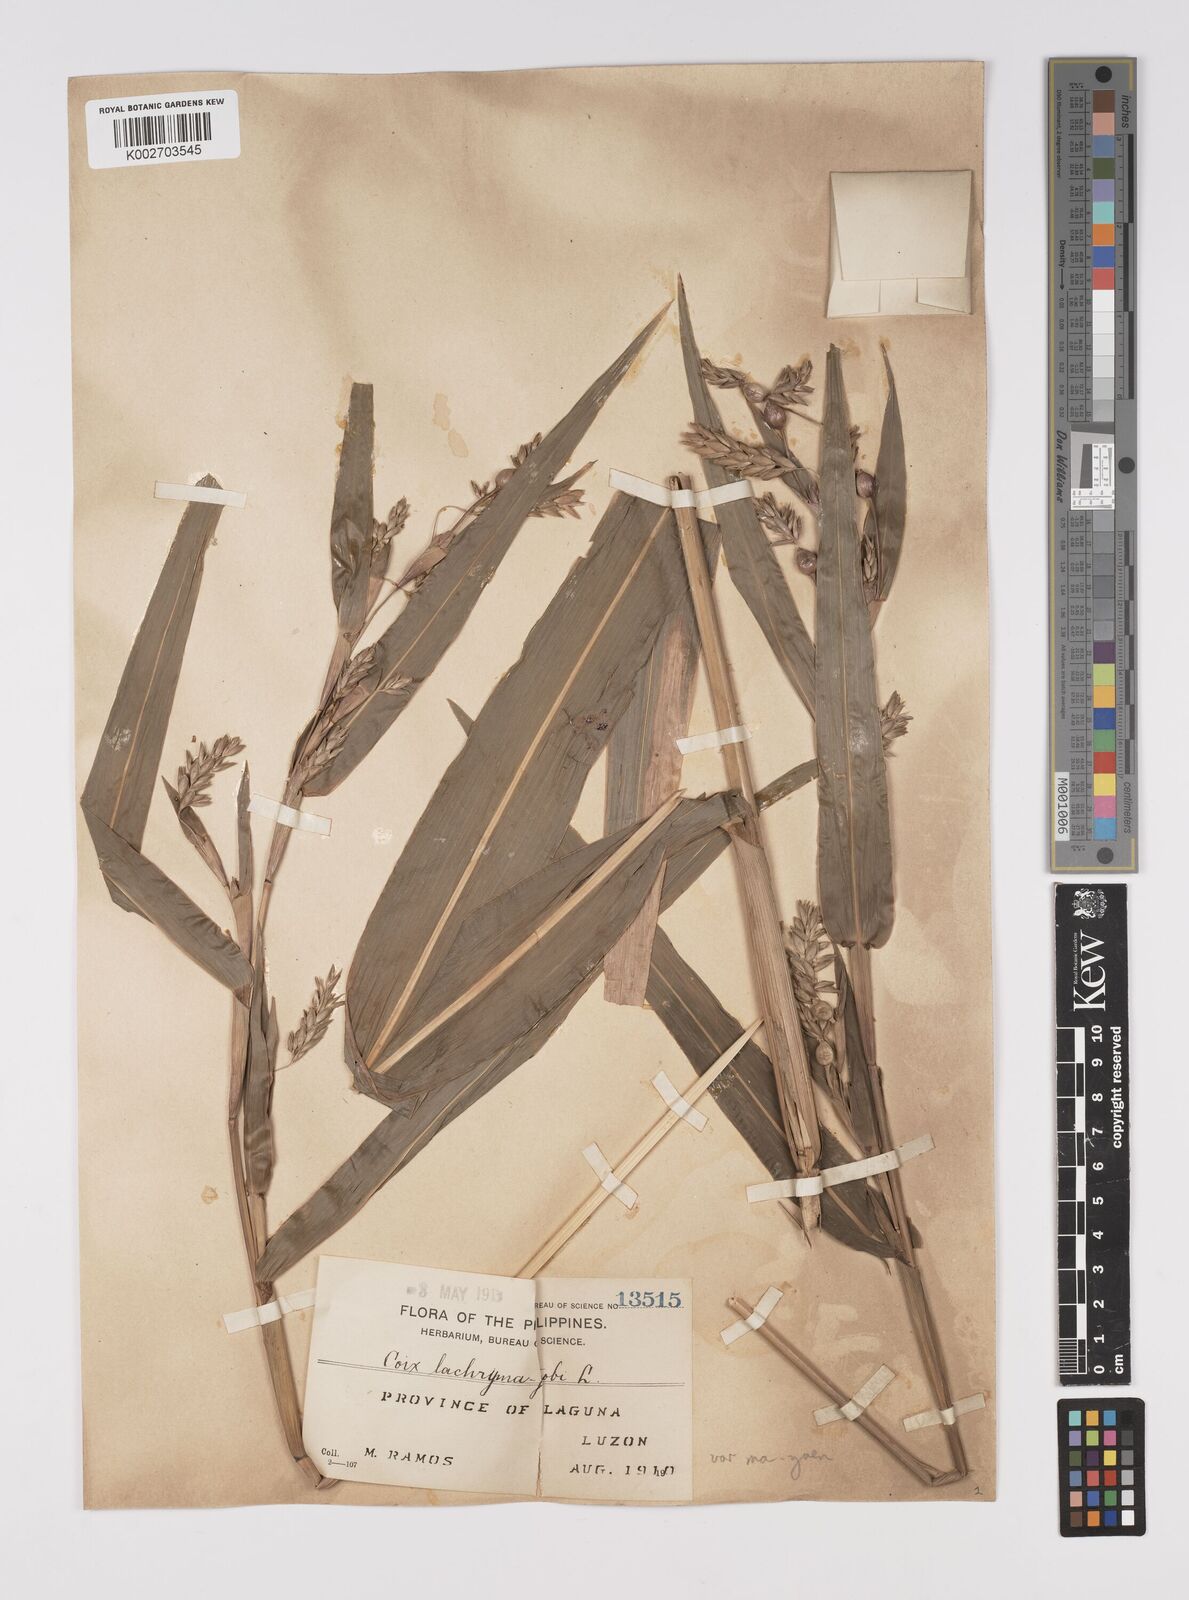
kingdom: Plantae
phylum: Tracheophyta
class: Liliopsida
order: Poales
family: Poaceae
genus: Coix
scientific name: Coix lacryma-jobi
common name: Job's tears
